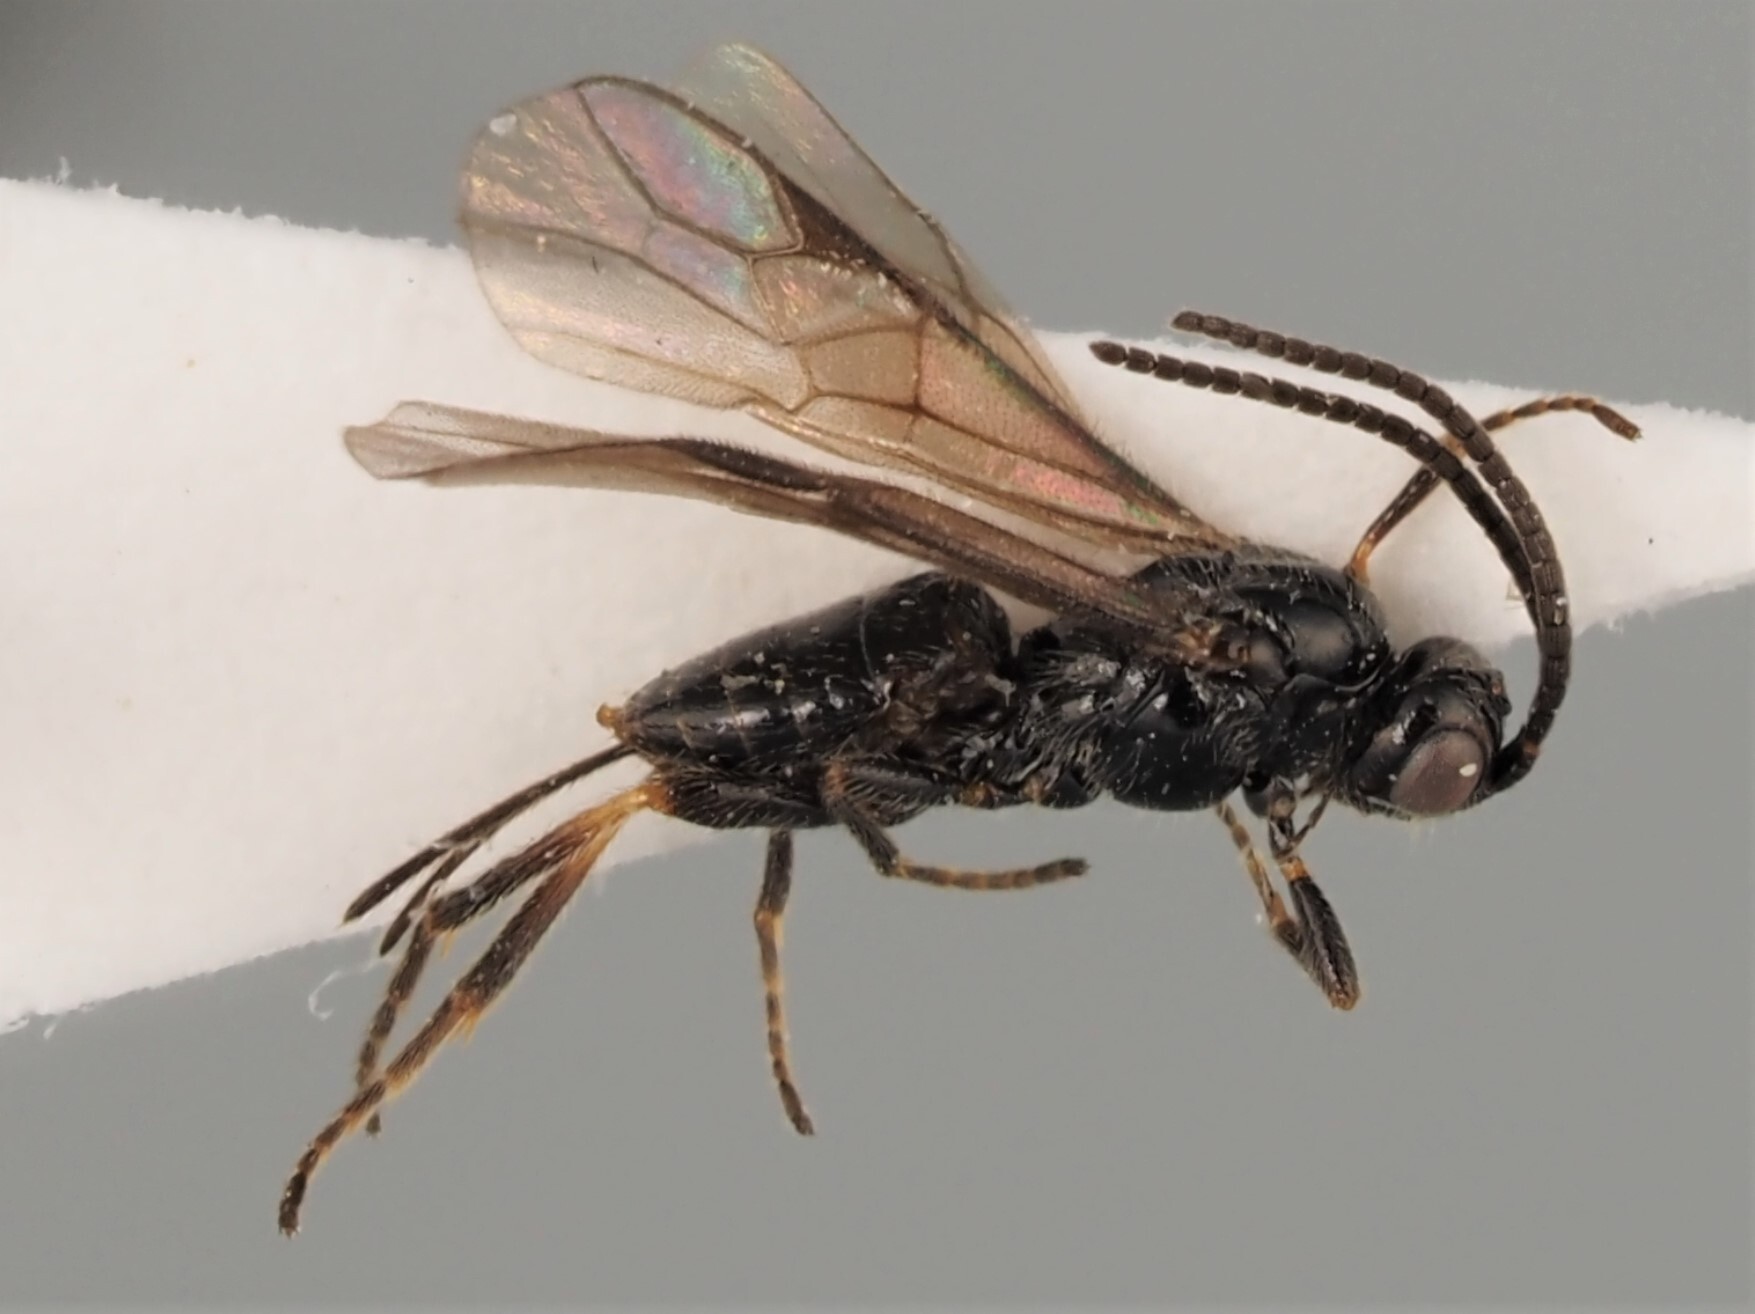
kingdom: Animalia
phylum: Arthropoda
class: Insecta
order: Hymenoptera
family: Braconidae
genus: Bracon
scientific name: Bracon erraticus
